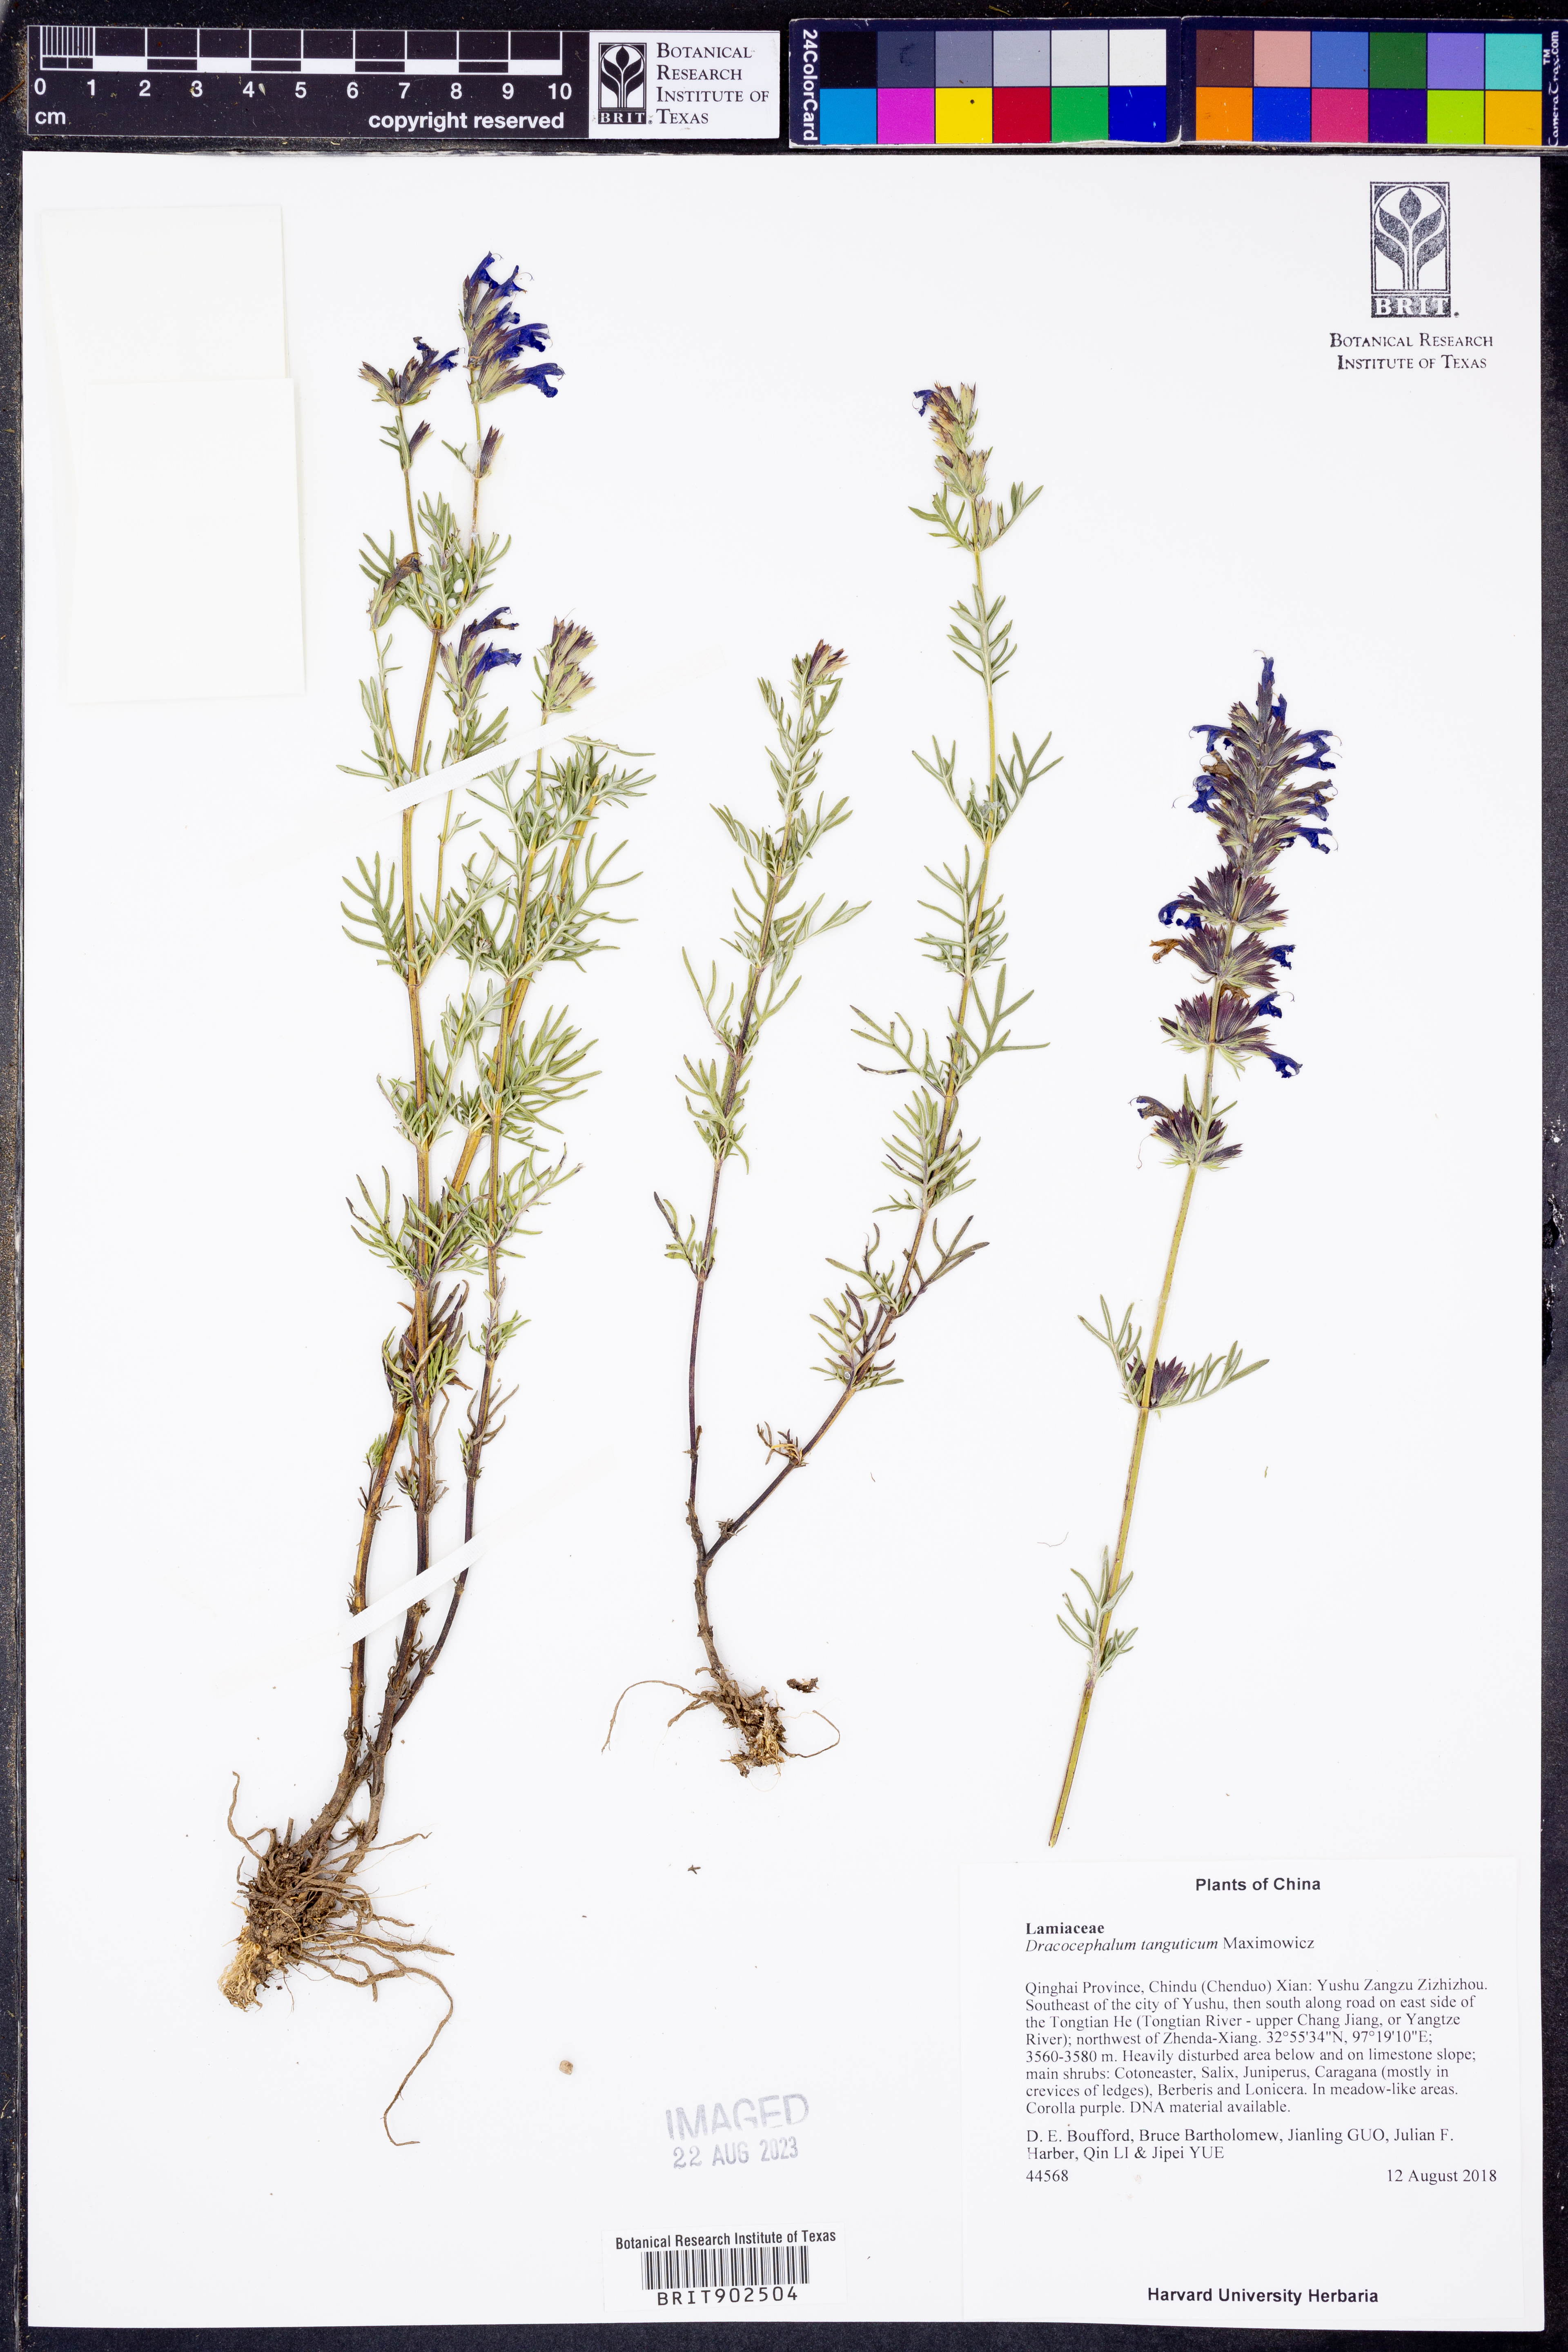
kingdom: Plantae
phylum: Tracheophyta
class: Magnoliopsida
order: Lamiales
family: Lamiaceae
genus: Dracocephalum
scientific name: Dracocephalum tanguticum
